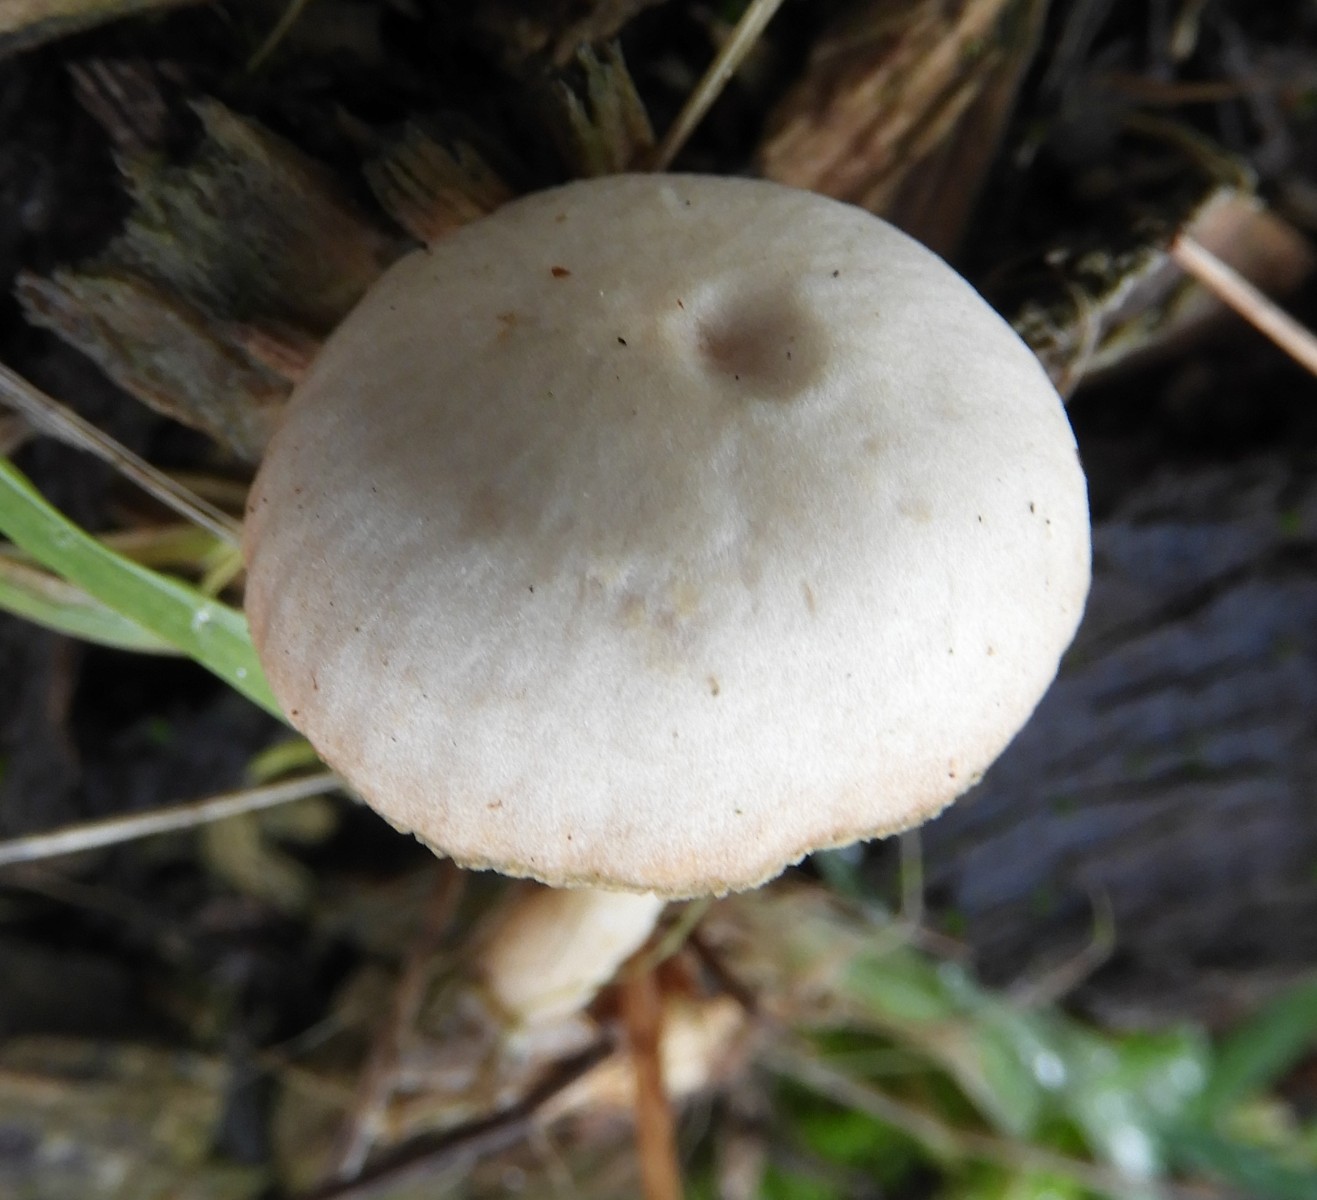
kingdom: Fungi
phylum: Basidiomycota
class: Agaricomycetes
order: Agaricales
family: Tubariaceae
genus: Tubaria
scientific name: Tubaria furfuracea
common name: kliddet fnughat
